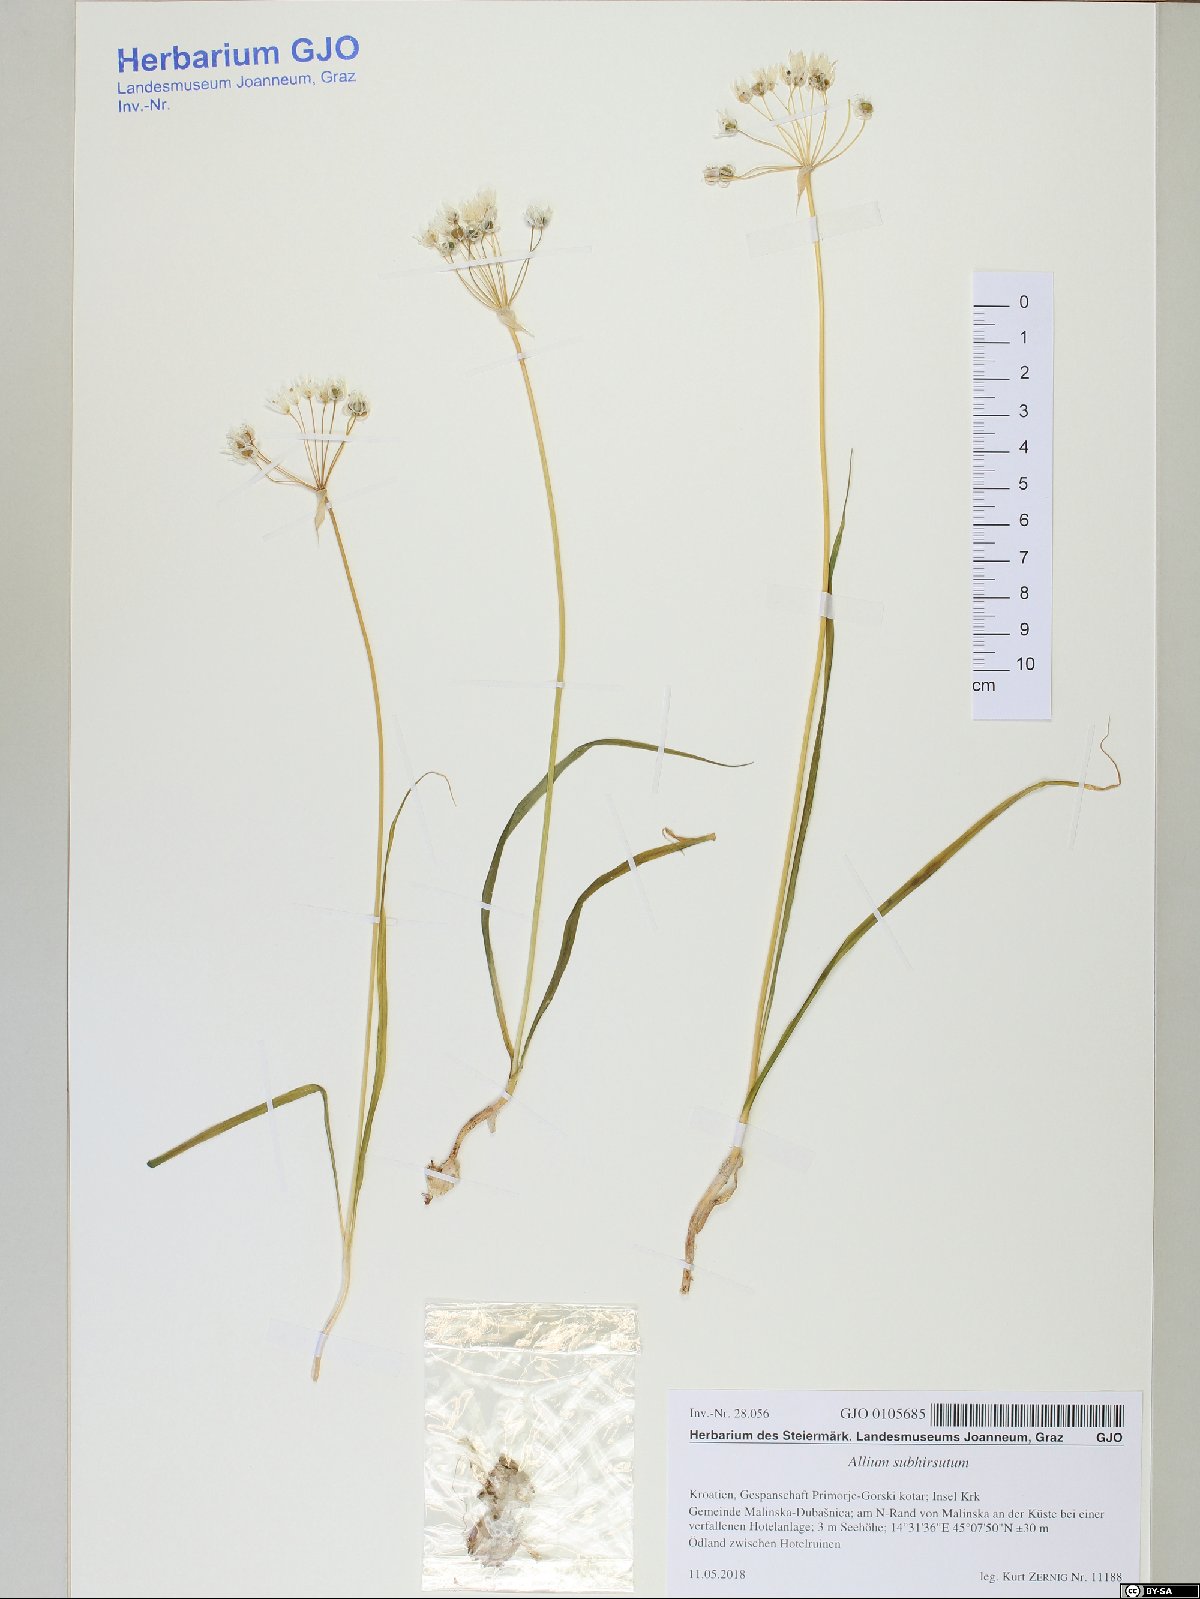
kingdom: Plantae
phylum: Tracheophyta
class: Liliopsida
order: Asparagales
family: Amaryllidaceae
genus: Allium
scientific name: Allium subhirsutum
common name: Hairy garlic
